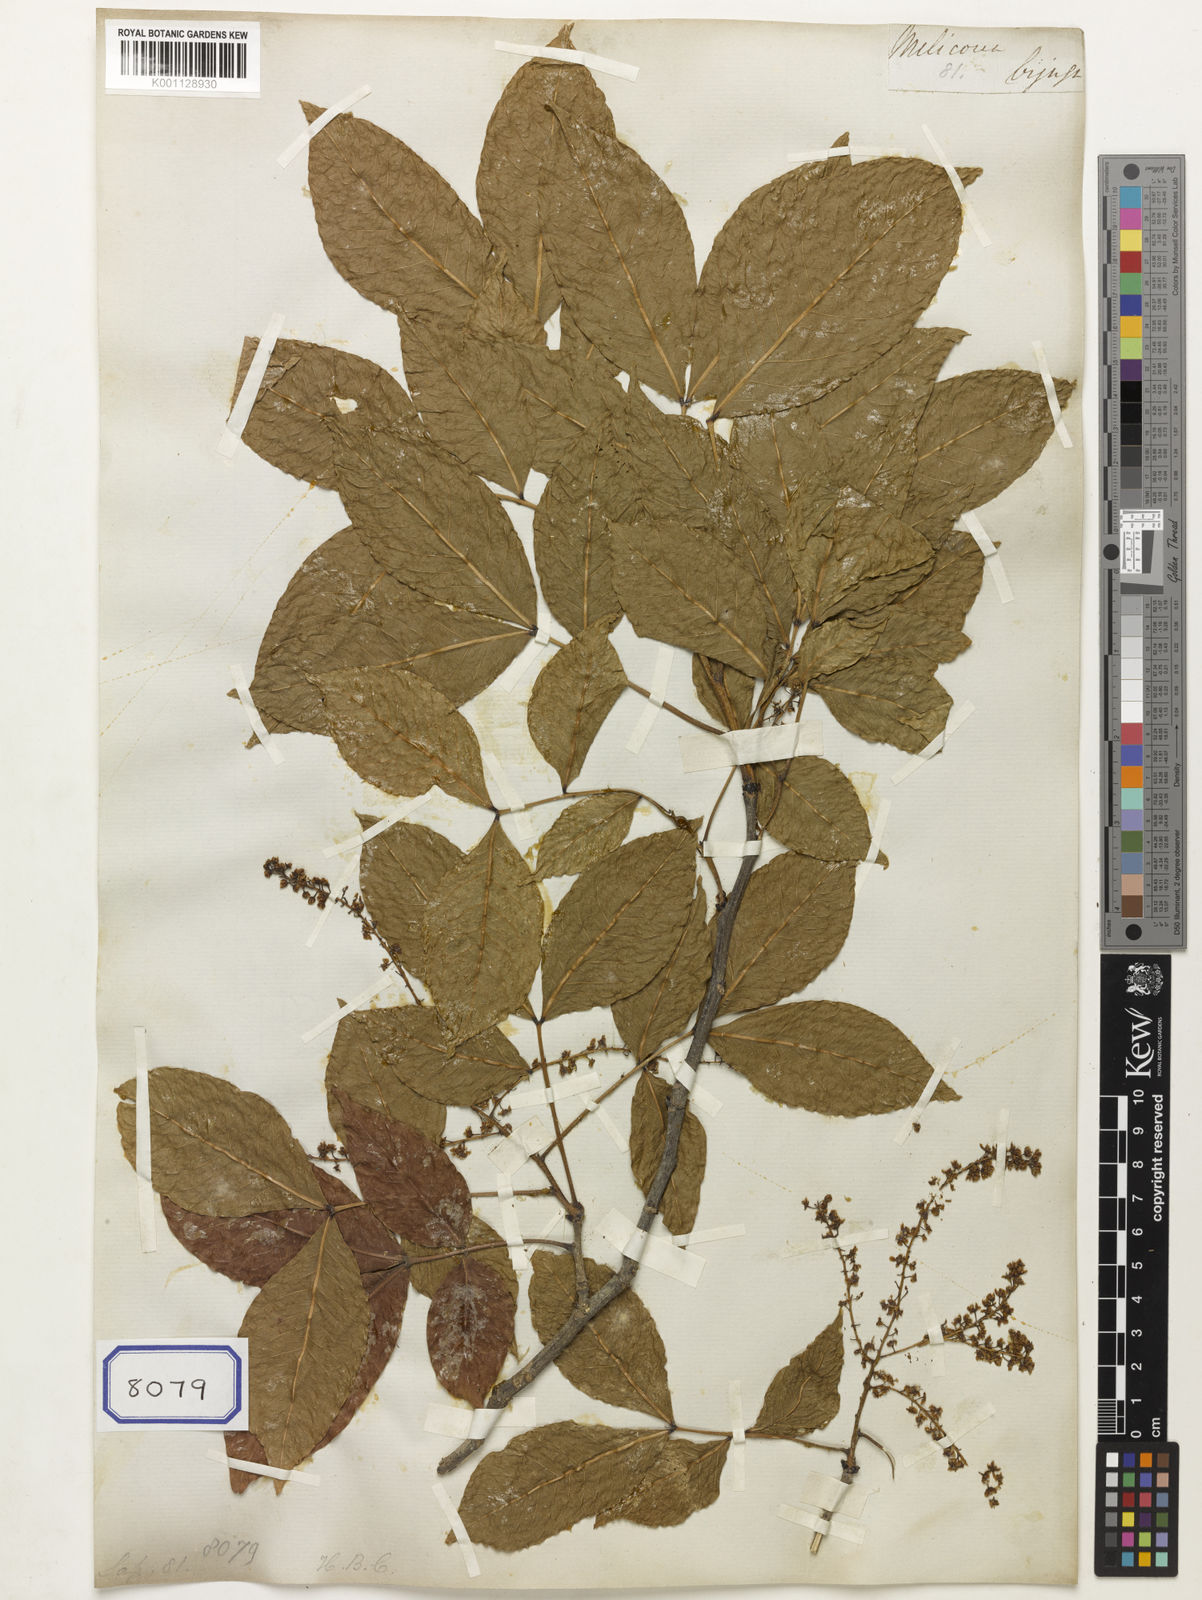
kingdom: Plantae
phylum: Tracheophyta
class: Magnoliopsida
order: Sapindales
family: Sapindaceae
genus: Melicoccus
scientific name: Melicoccus bijugatus
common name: Spanish lime
